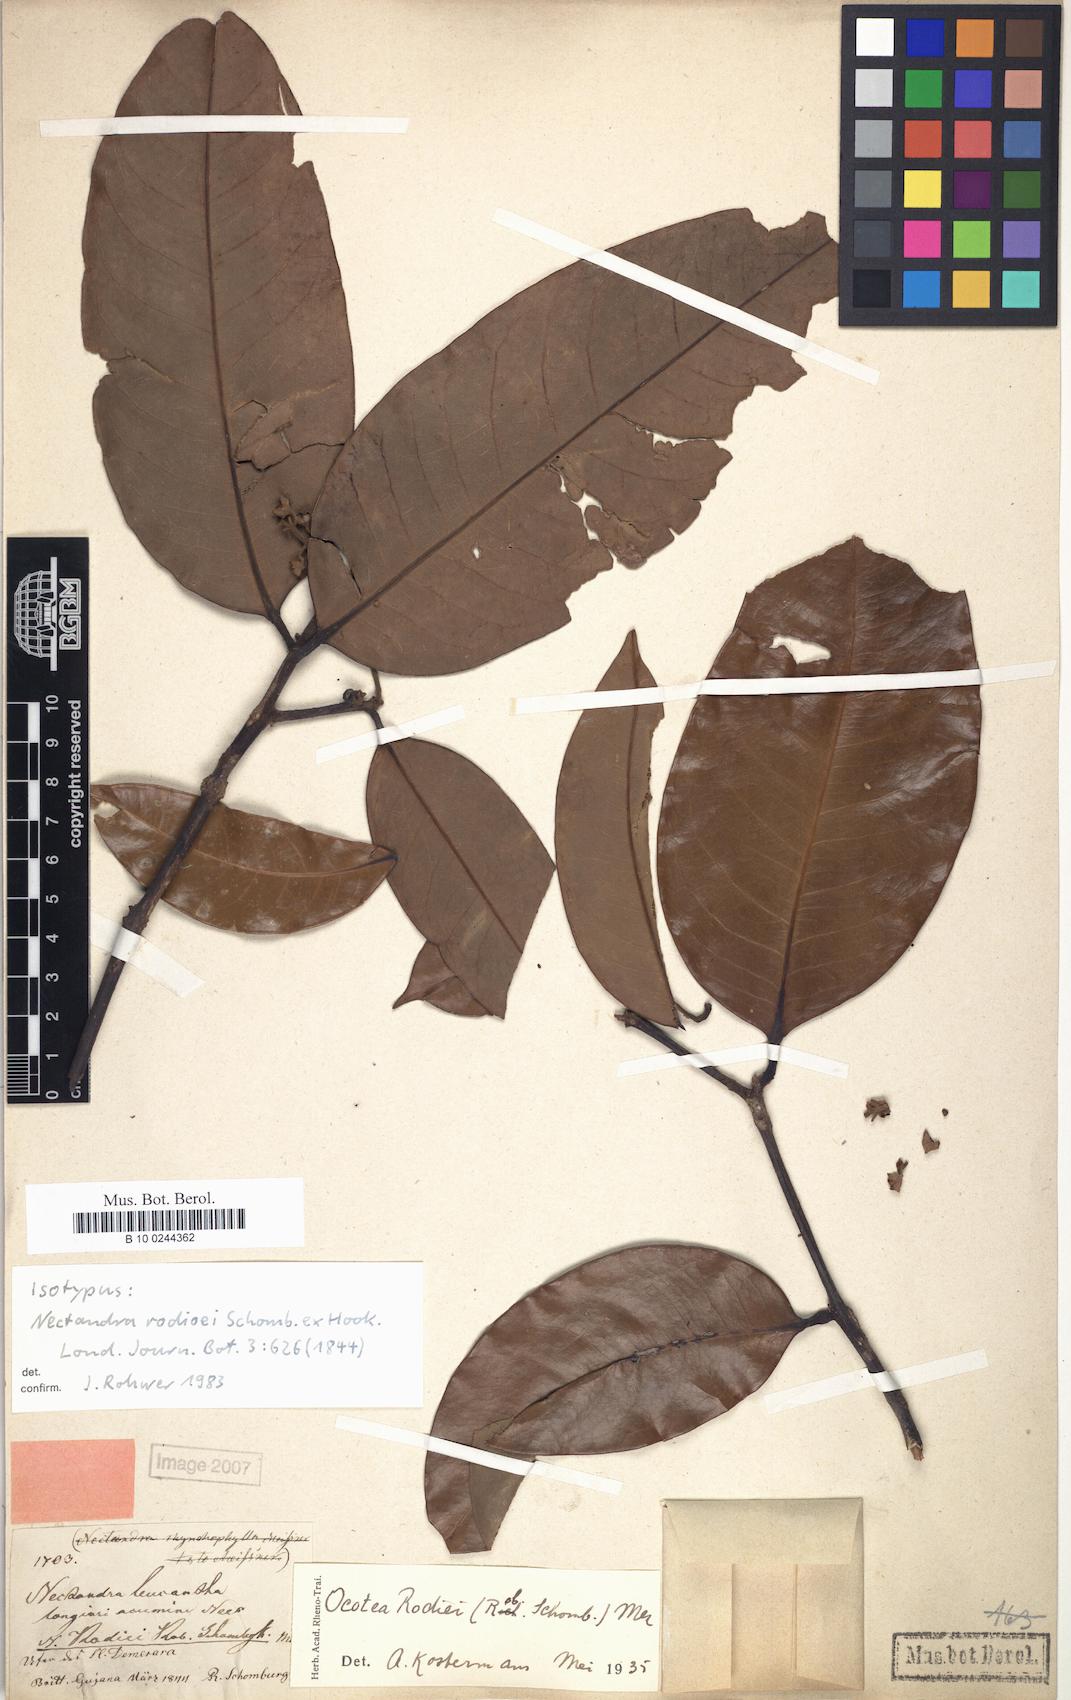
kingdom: Plantae
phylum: Tracheophyta
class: Magnoliopsida
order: Laurales
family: Lauraceae
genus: Chlorocardium
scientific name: Chlorocardium rodiei
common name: Cogwood
